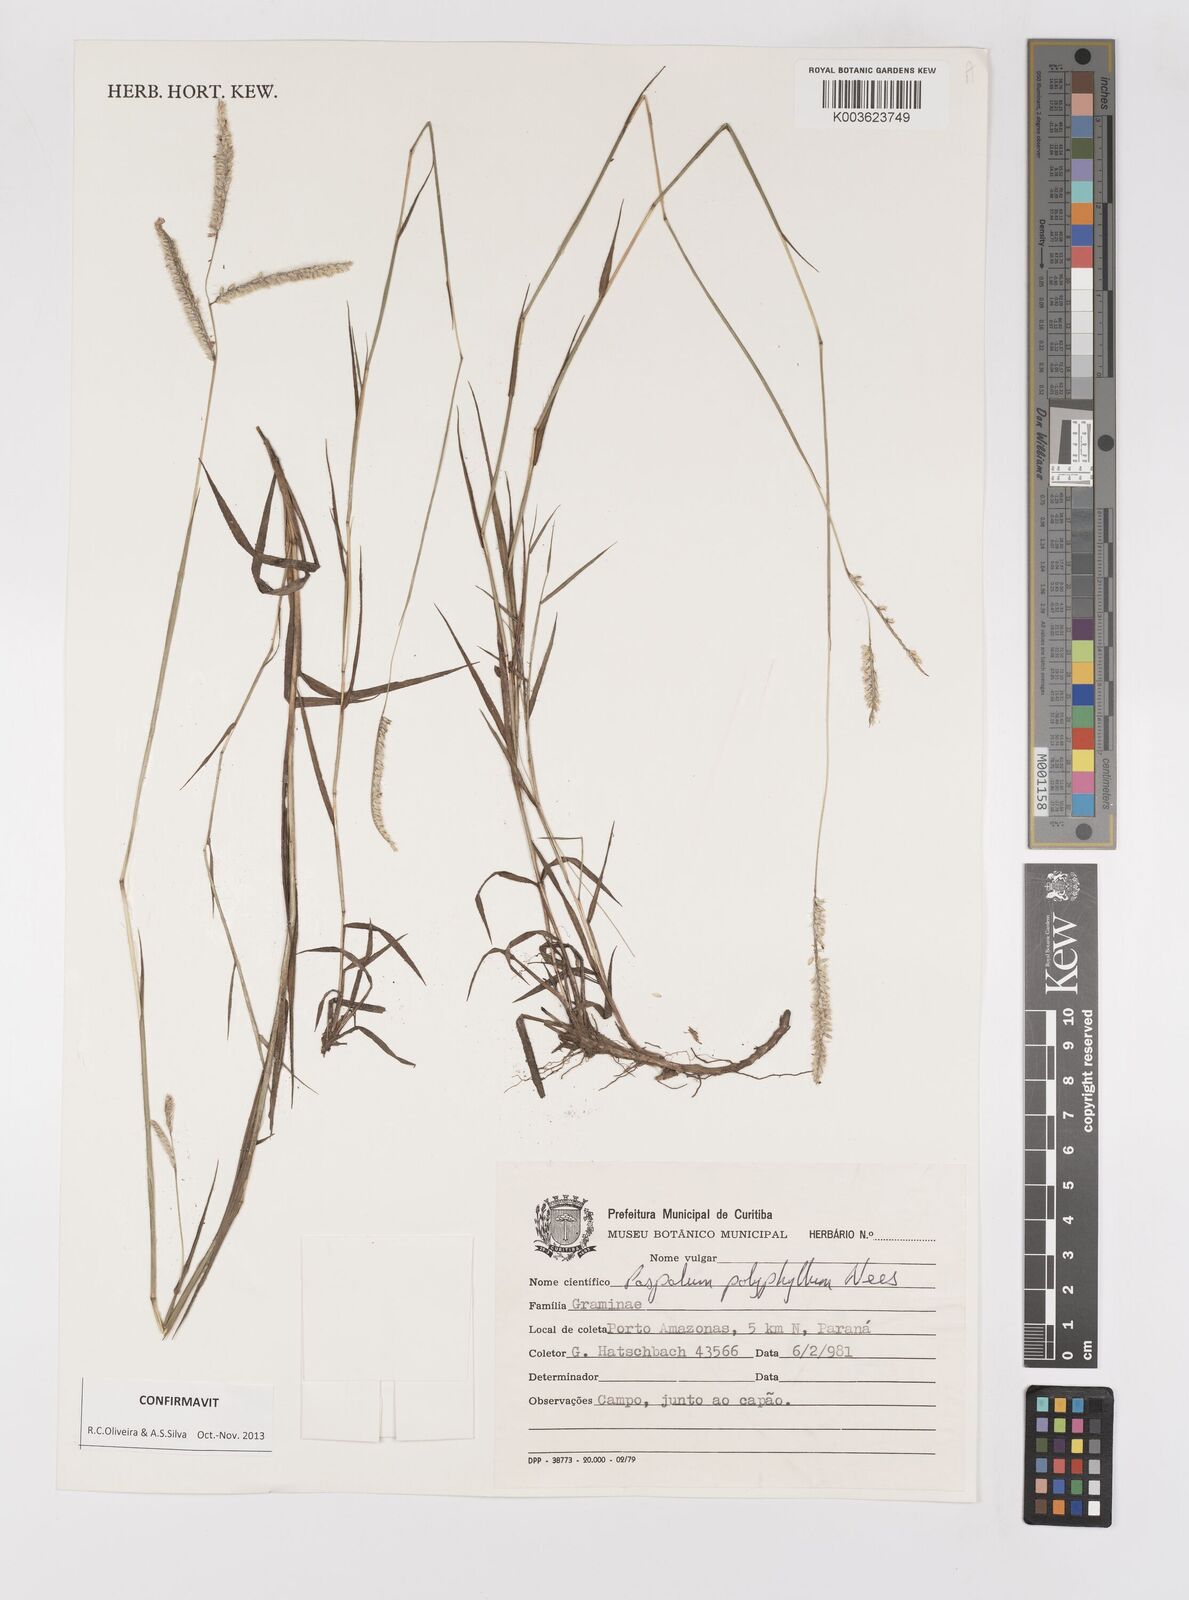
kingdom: Plantae
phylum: Tracheophyta
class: Liliopsida
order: Poales
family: Poaceae
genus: Paspalum
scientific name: Paspalum polyphyllum
